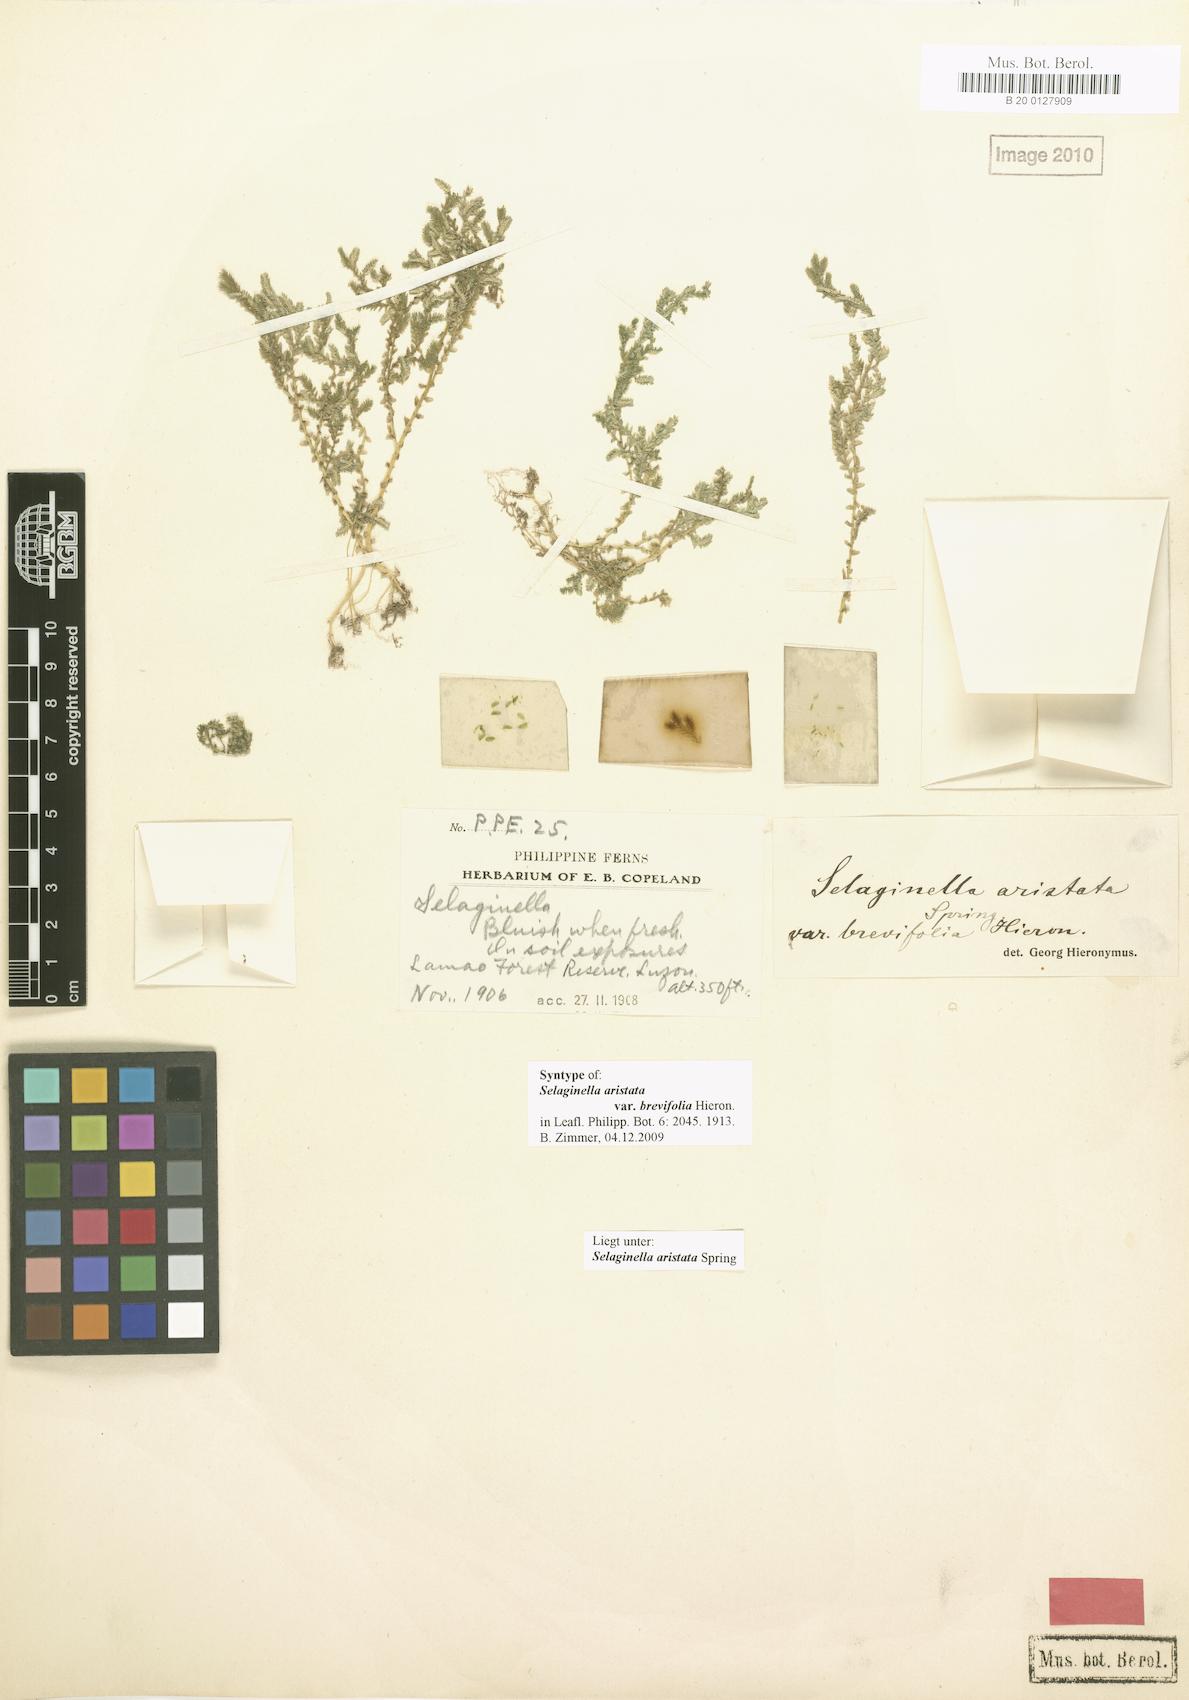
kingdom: Plantae
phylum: Tracheophyta
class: Lycopodiopsida
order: Selaginellales
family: Selaginellaceae
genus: Selaginella
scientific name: Selaginella aristata
